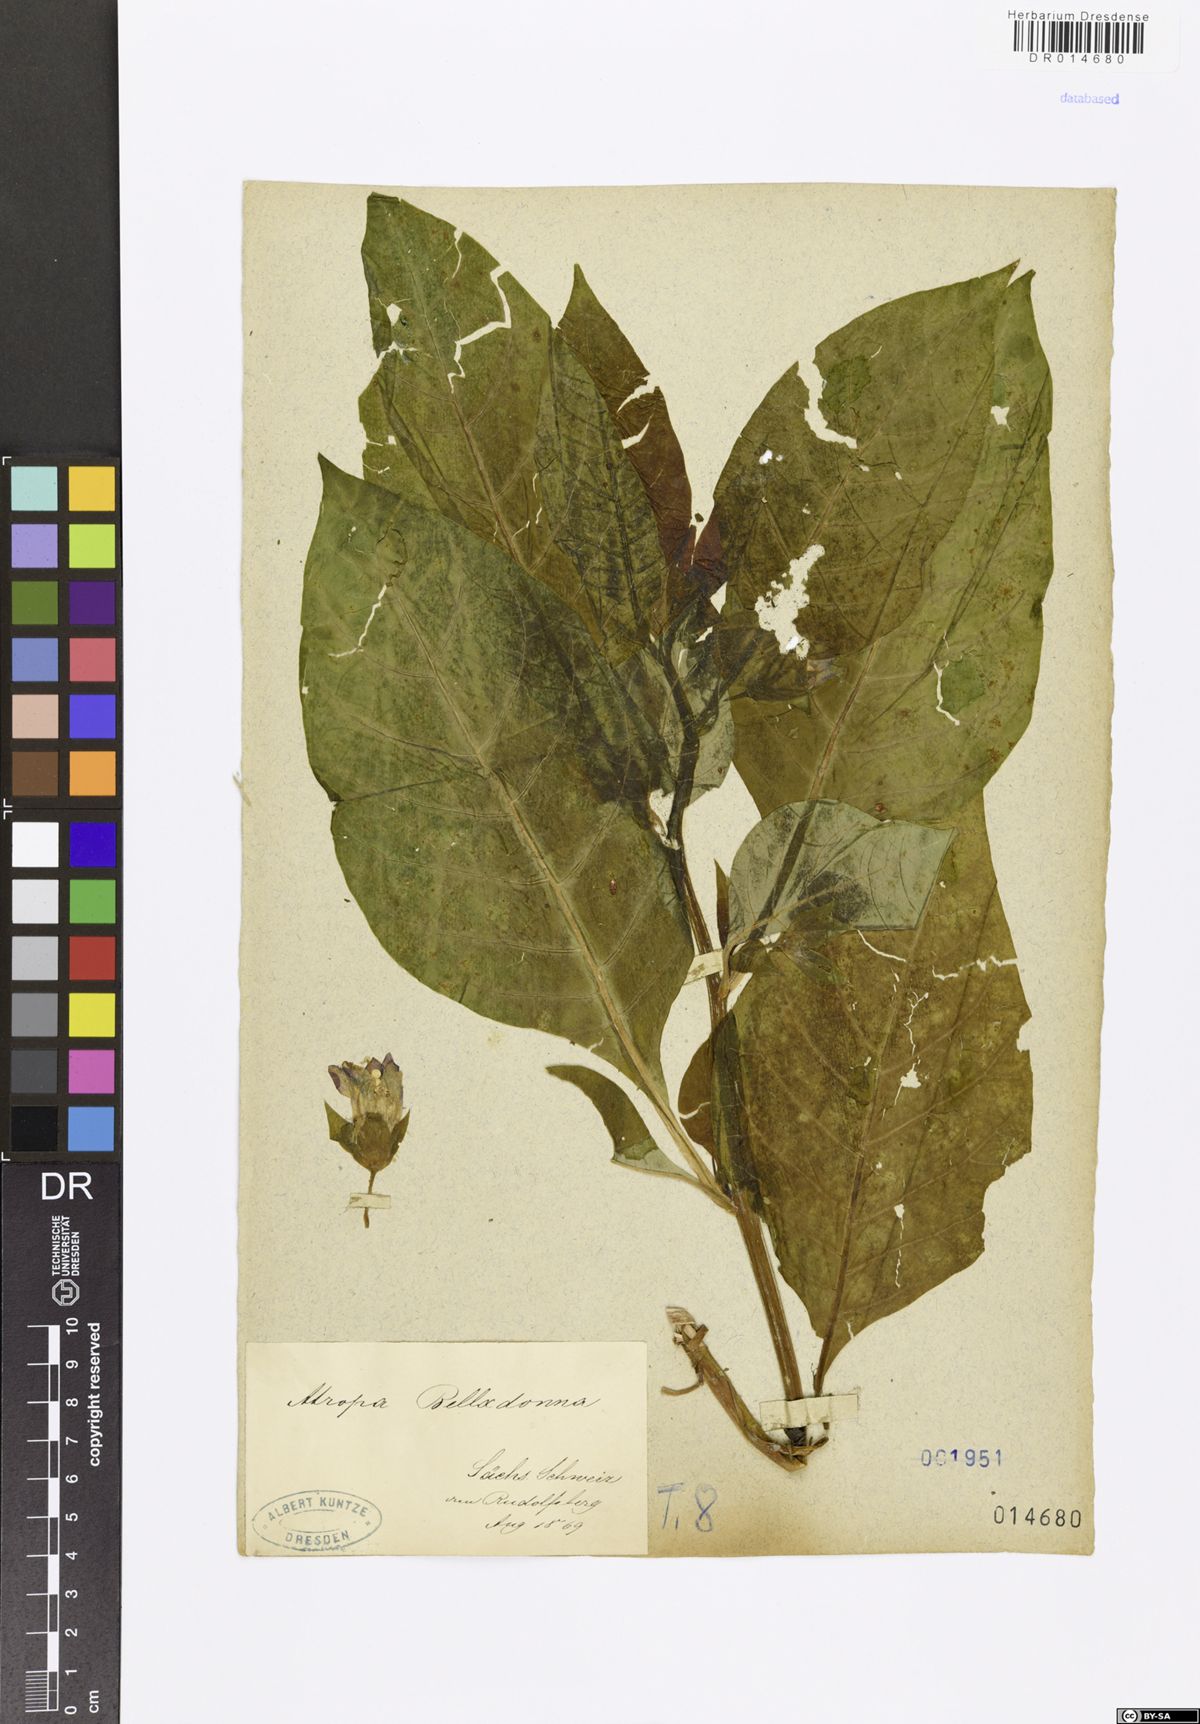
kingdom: Plantae
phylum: Tracheophyta
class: Magnoliopsida
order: Solanales
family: Solanaceae
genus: Atropa
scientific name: Atropa belladonna
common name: Deadly nightshade
